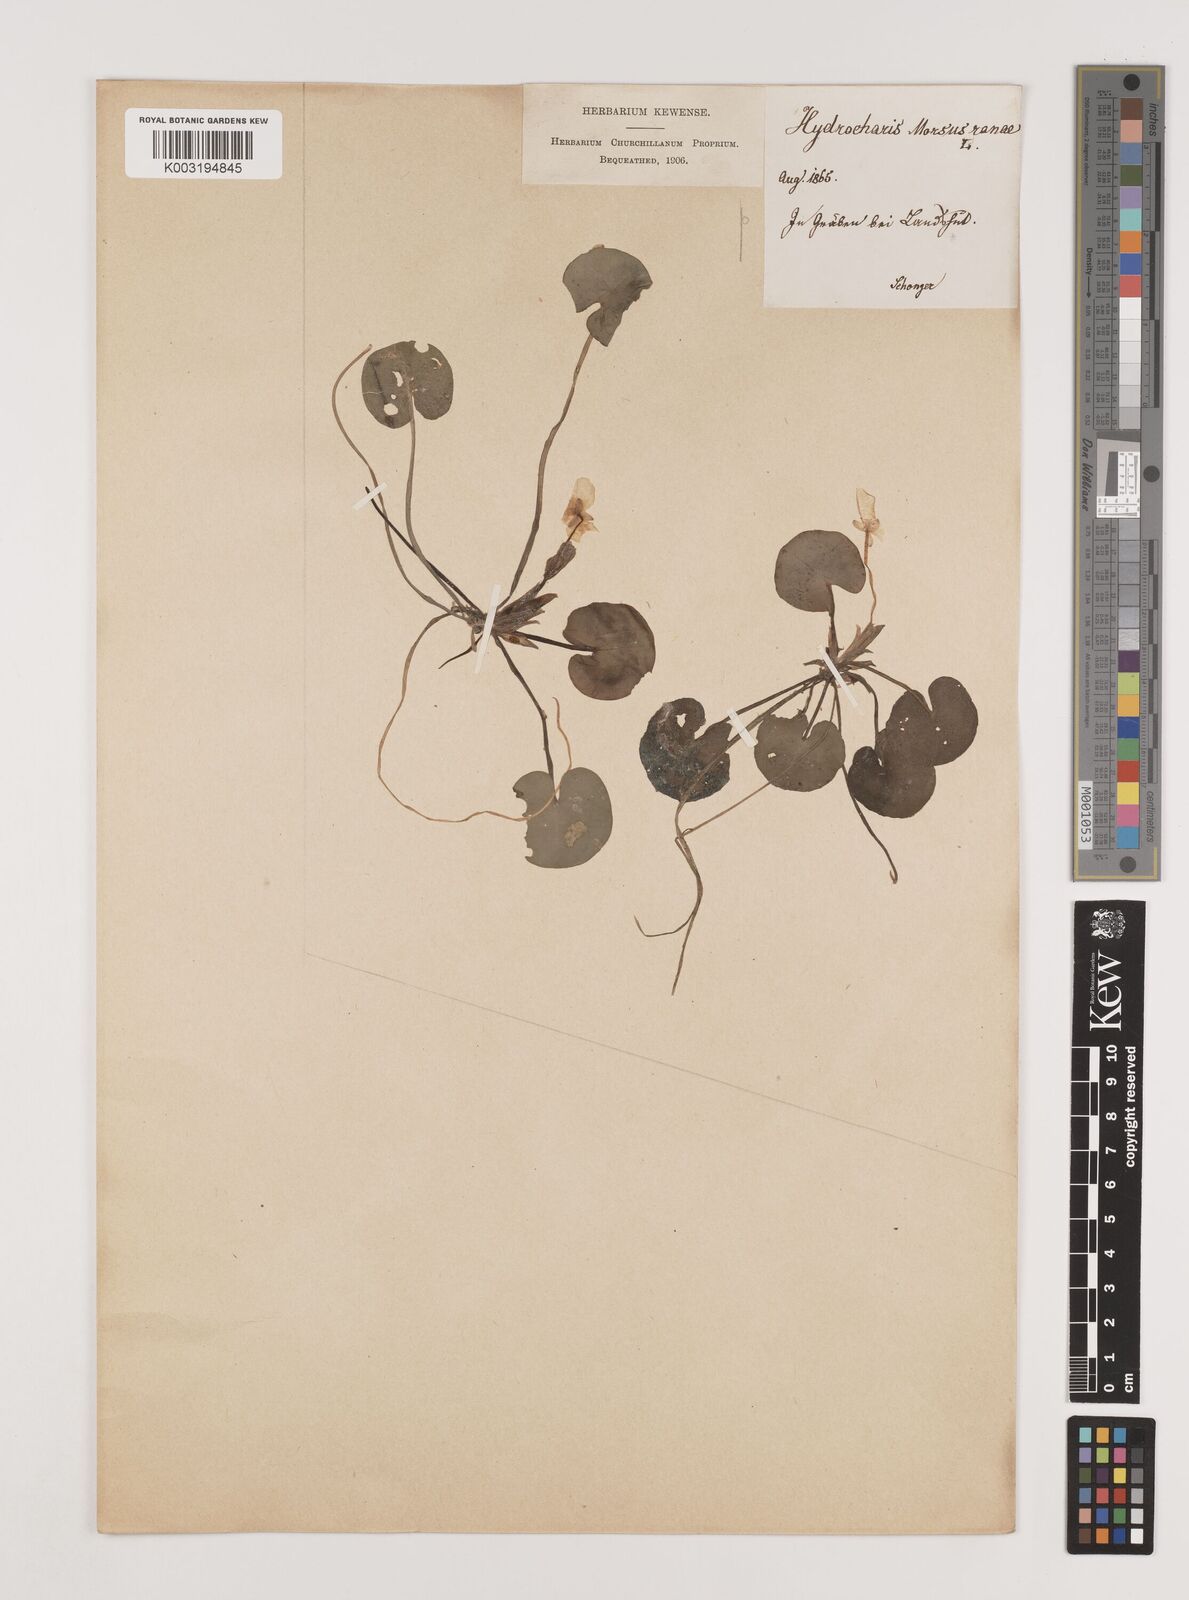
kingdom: Plantae
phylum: Tracheophyta
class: Liliopsida
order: Alismatales
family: Hydrocharitaceae
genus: Hydrocharis
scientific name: Hydrocharis morsus-ranae
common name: Frogbit
